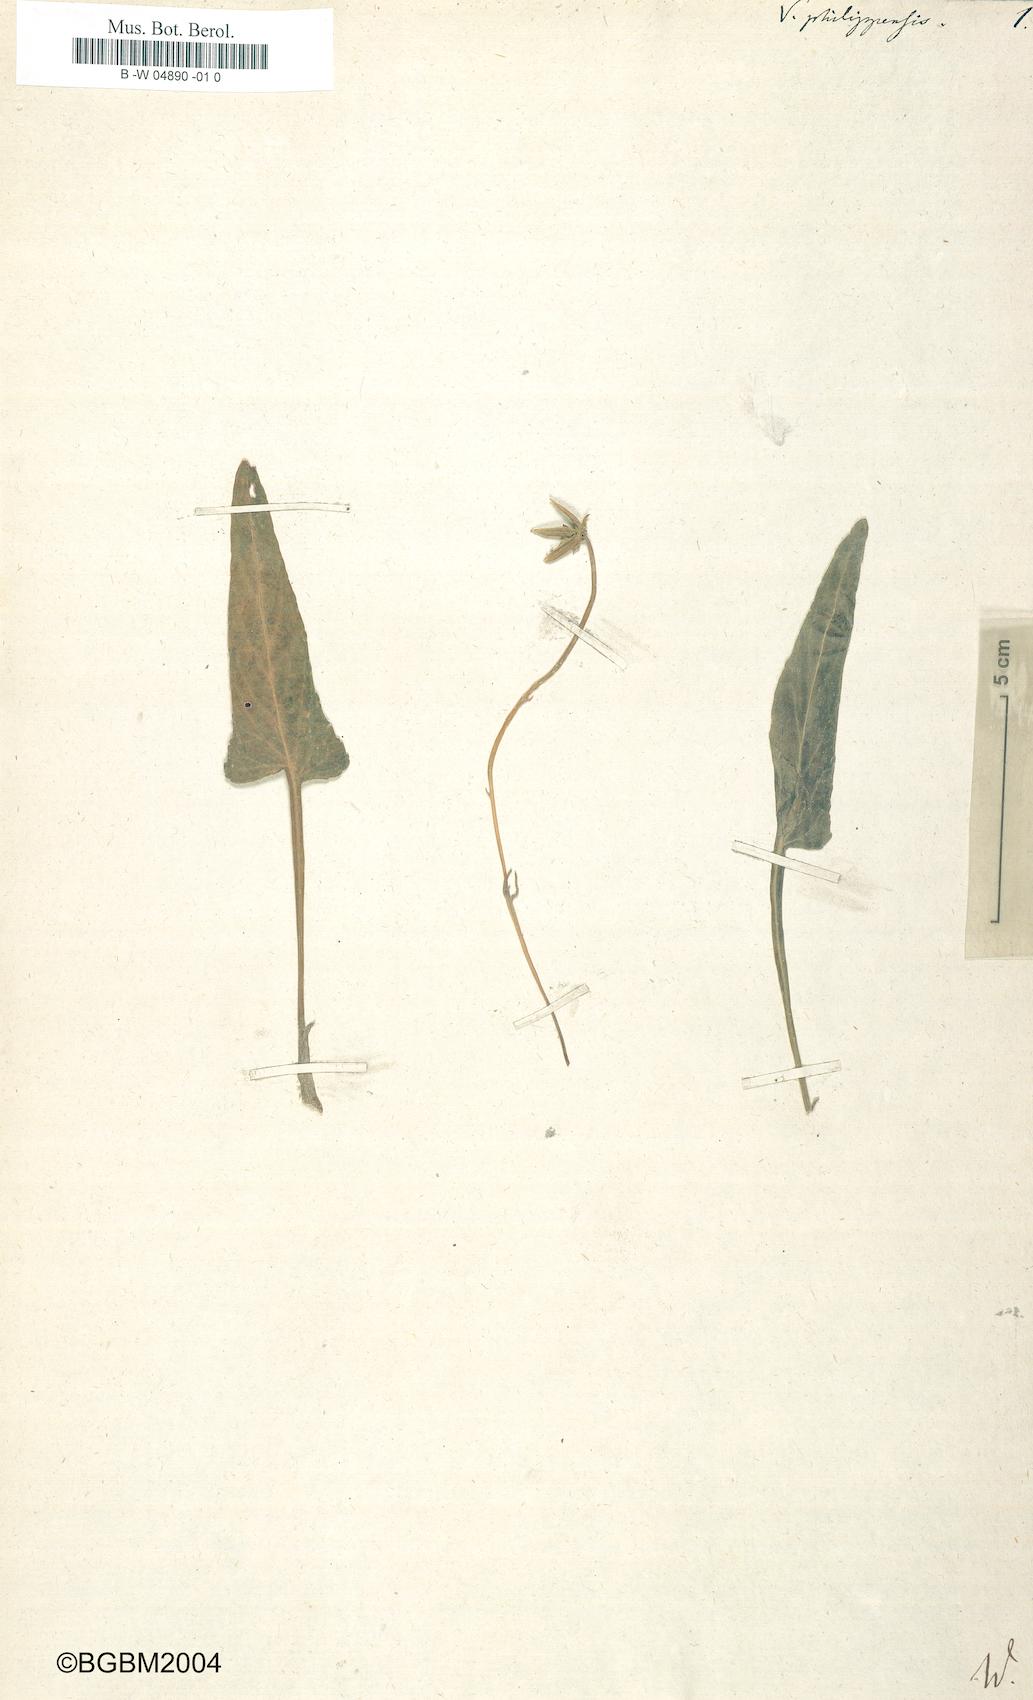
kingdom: Plantae
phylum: Tracheophyta
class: Magnoliopsida
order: Malpighiales
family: Violaceae
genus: Viola
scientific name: Viola
